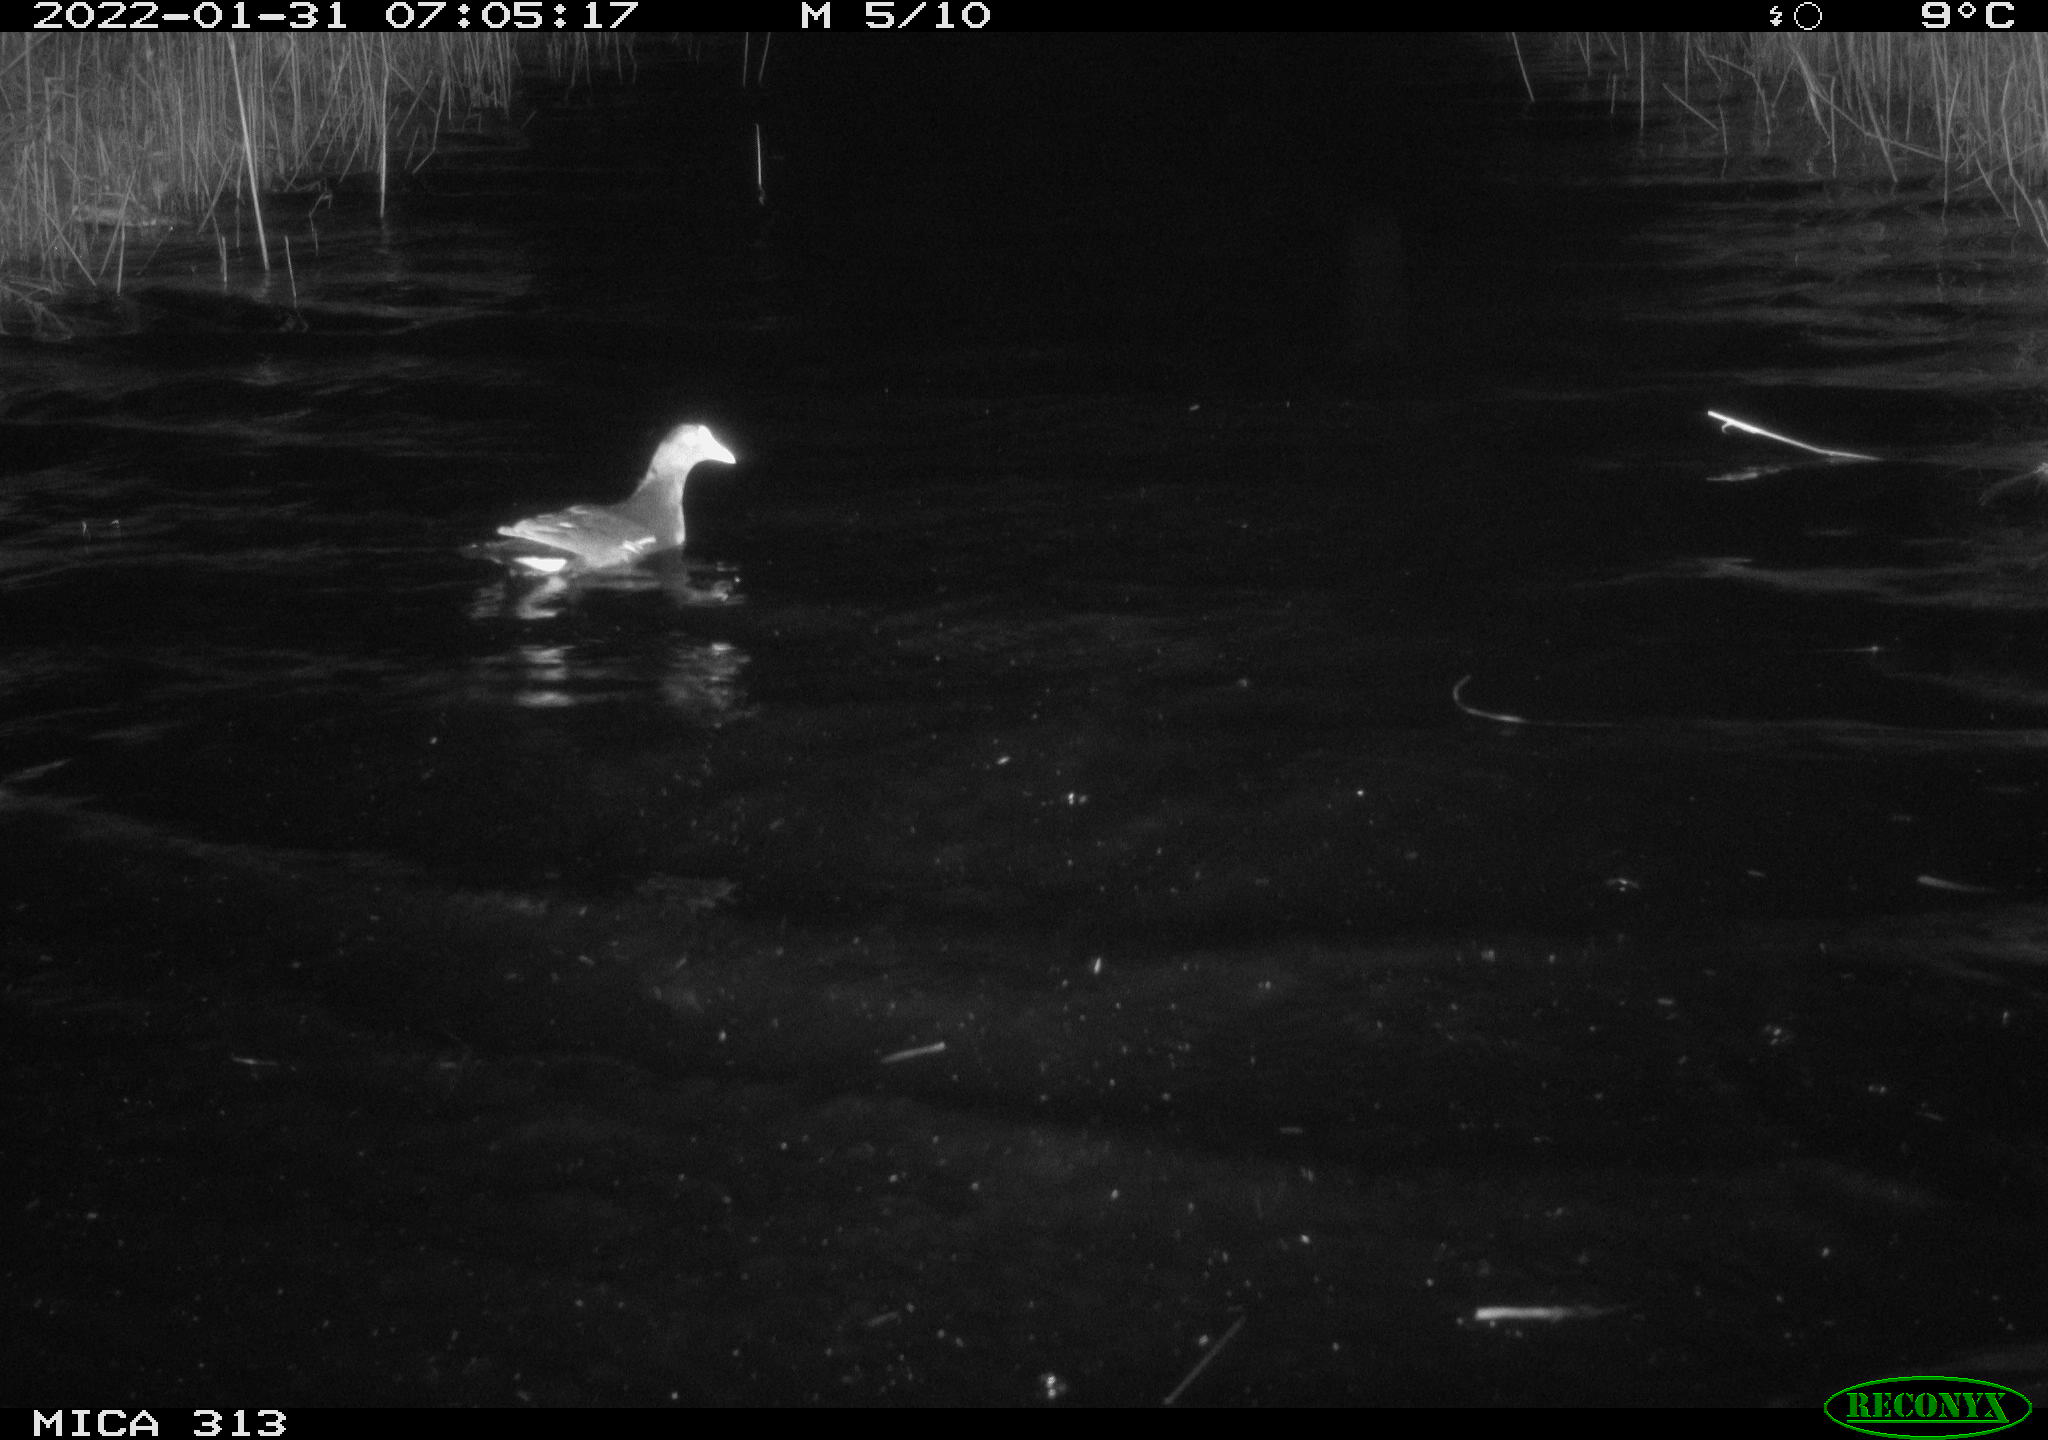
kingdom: Animalia
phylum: Chordata
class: Aves
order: Gruiformes
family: Rallidae
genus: Gallinula
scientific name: Gallinula chloropus
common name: Common moorhen
